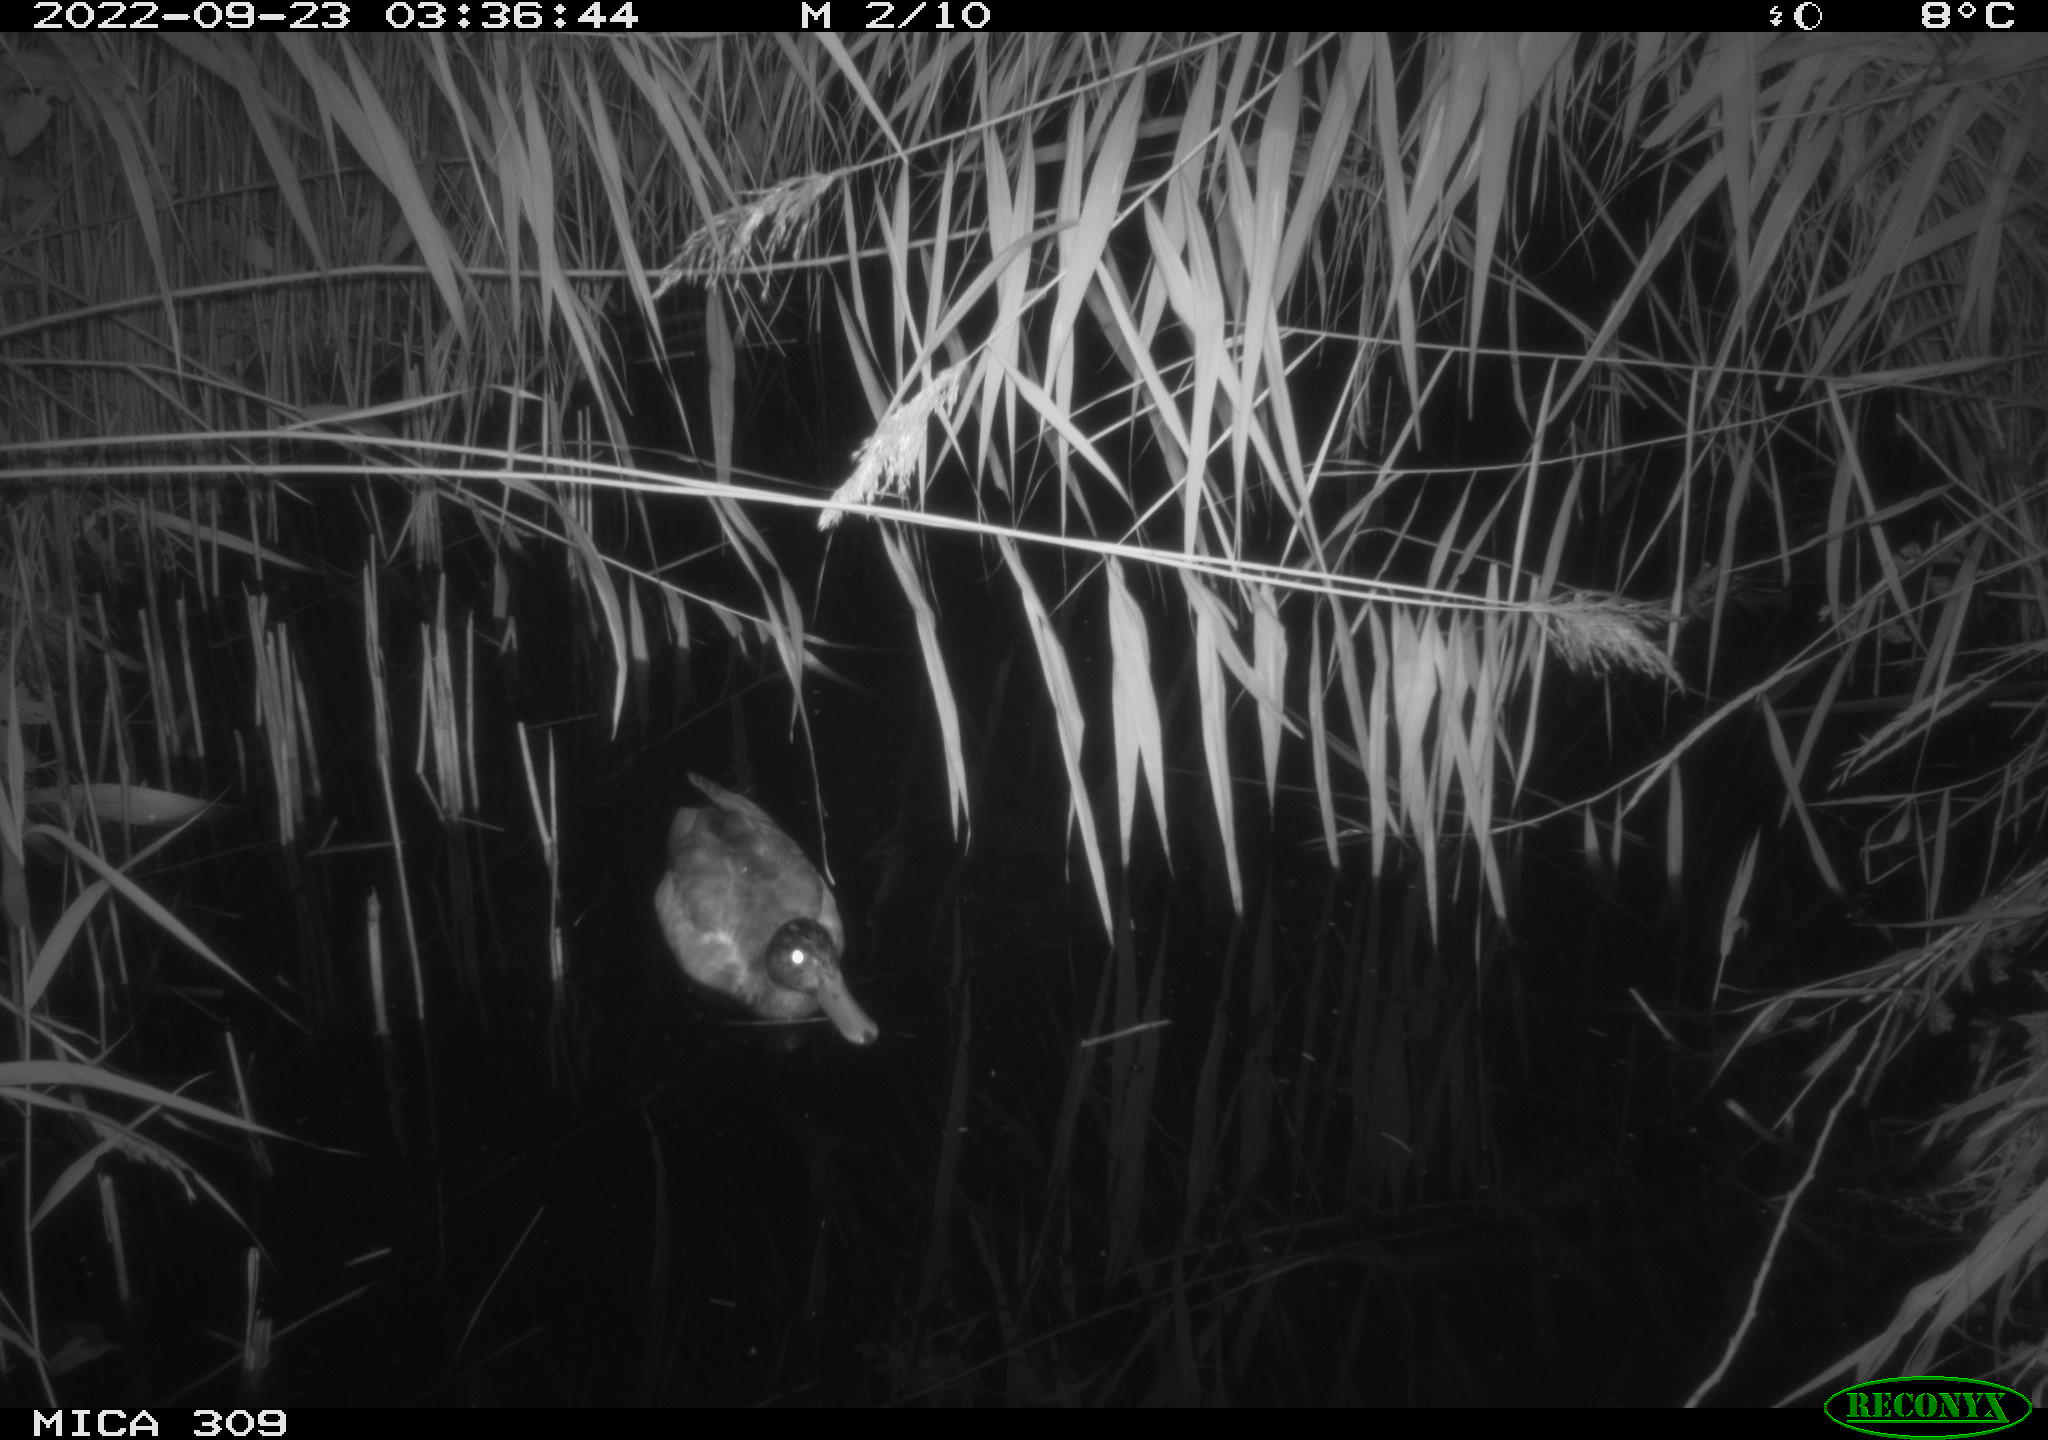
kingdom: Animalia
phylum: Chordata
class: Aves
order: Anseriformes
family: Anatidae
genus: Anas
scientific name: Anas
